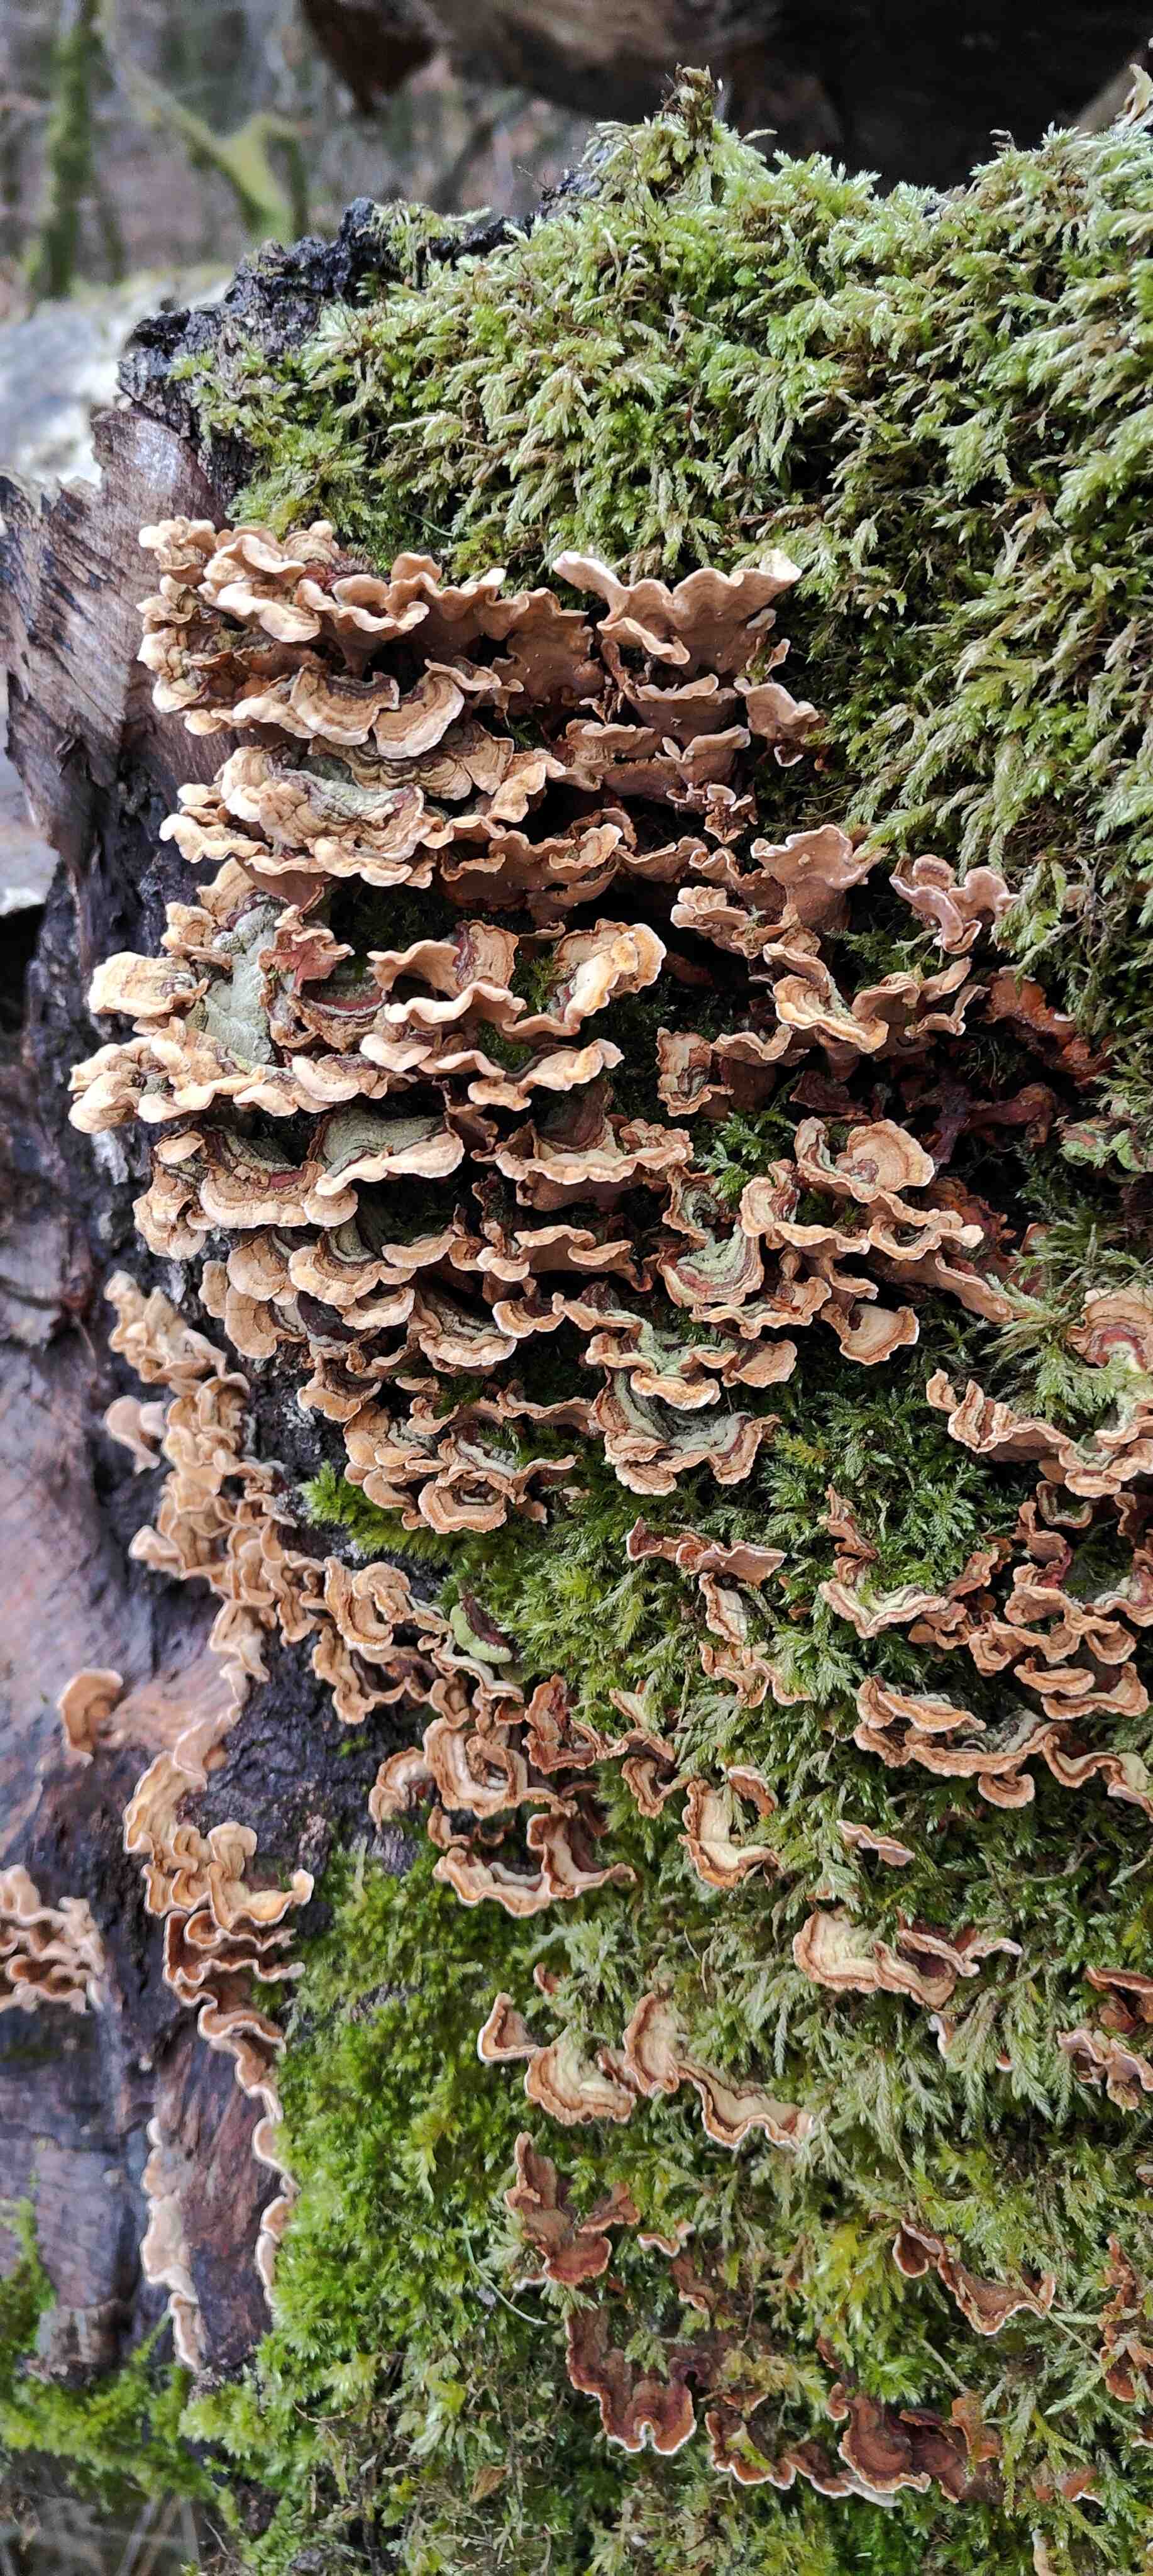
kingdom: Fungi
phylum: Basidiomycota
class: Agaricomycetes
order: Russulales
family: Stereaceae
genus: Stereum
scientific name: Stereum hirsutum
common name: håret lædersvamp
